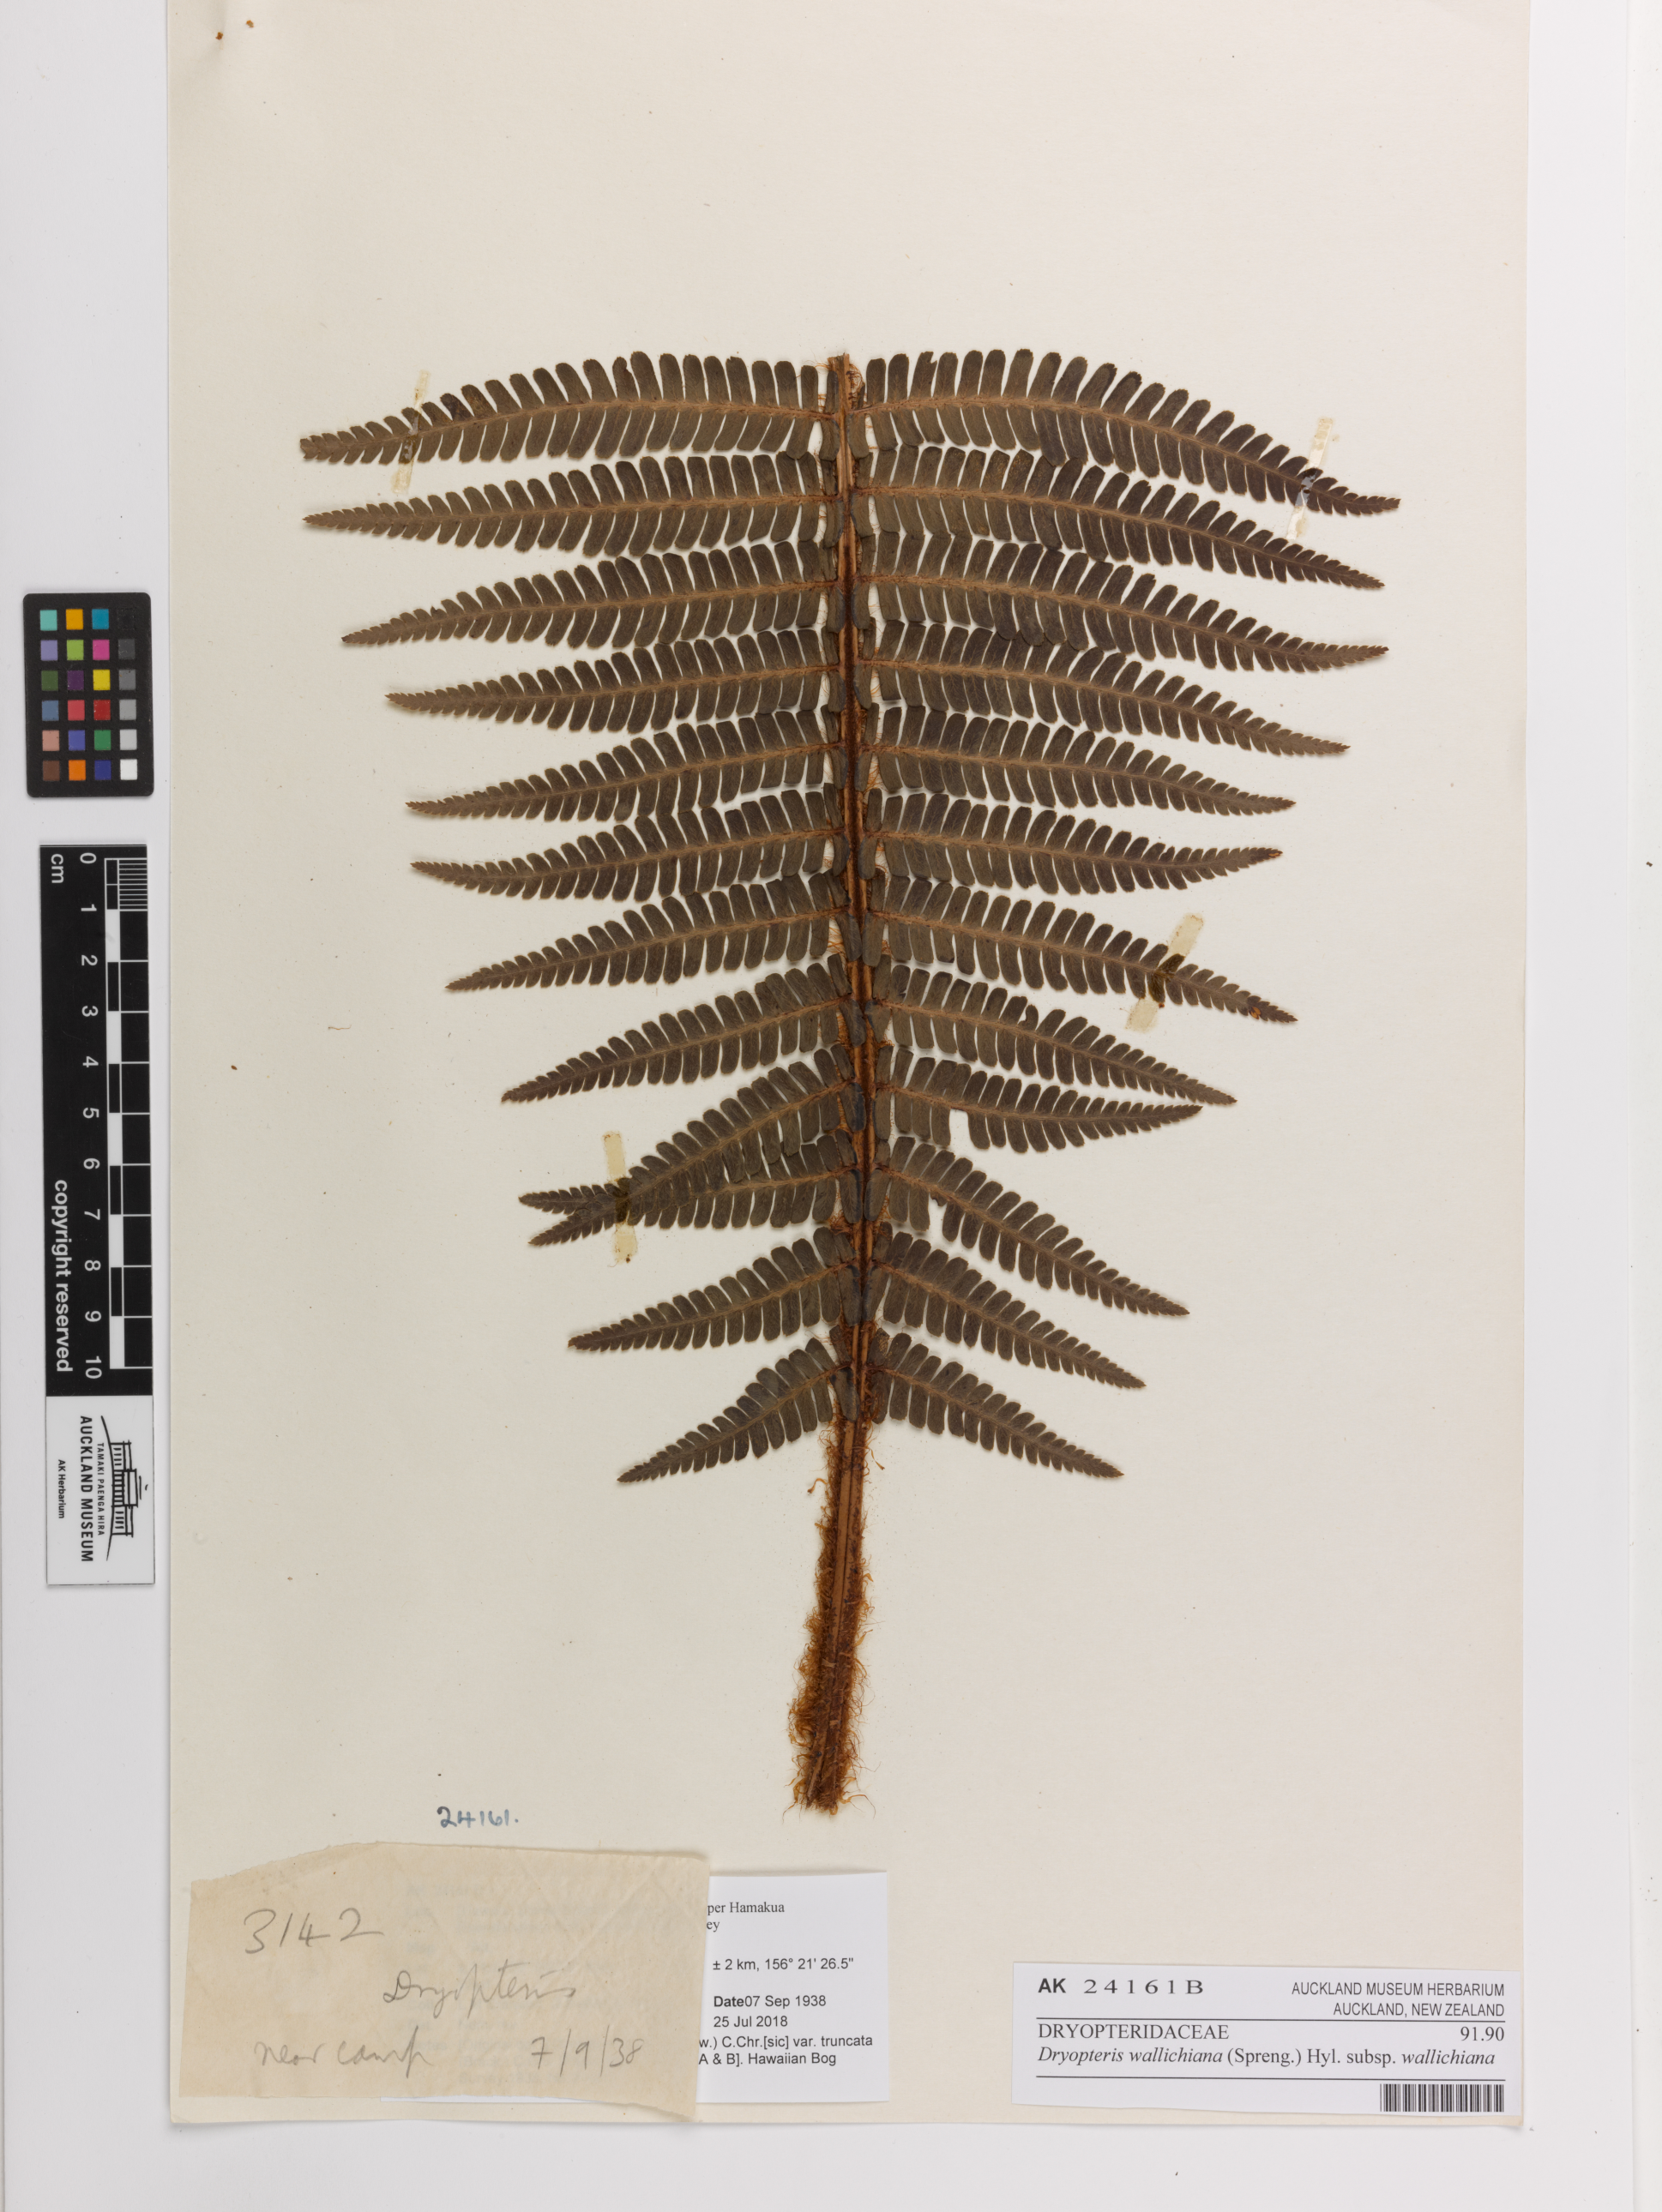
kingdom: Plantae
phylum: Tracheophyta
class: Polypodiopsida
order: Polypodiales
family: Dryopteridaceae
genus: Dryopteris
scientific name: Dryopteris wallichiana
